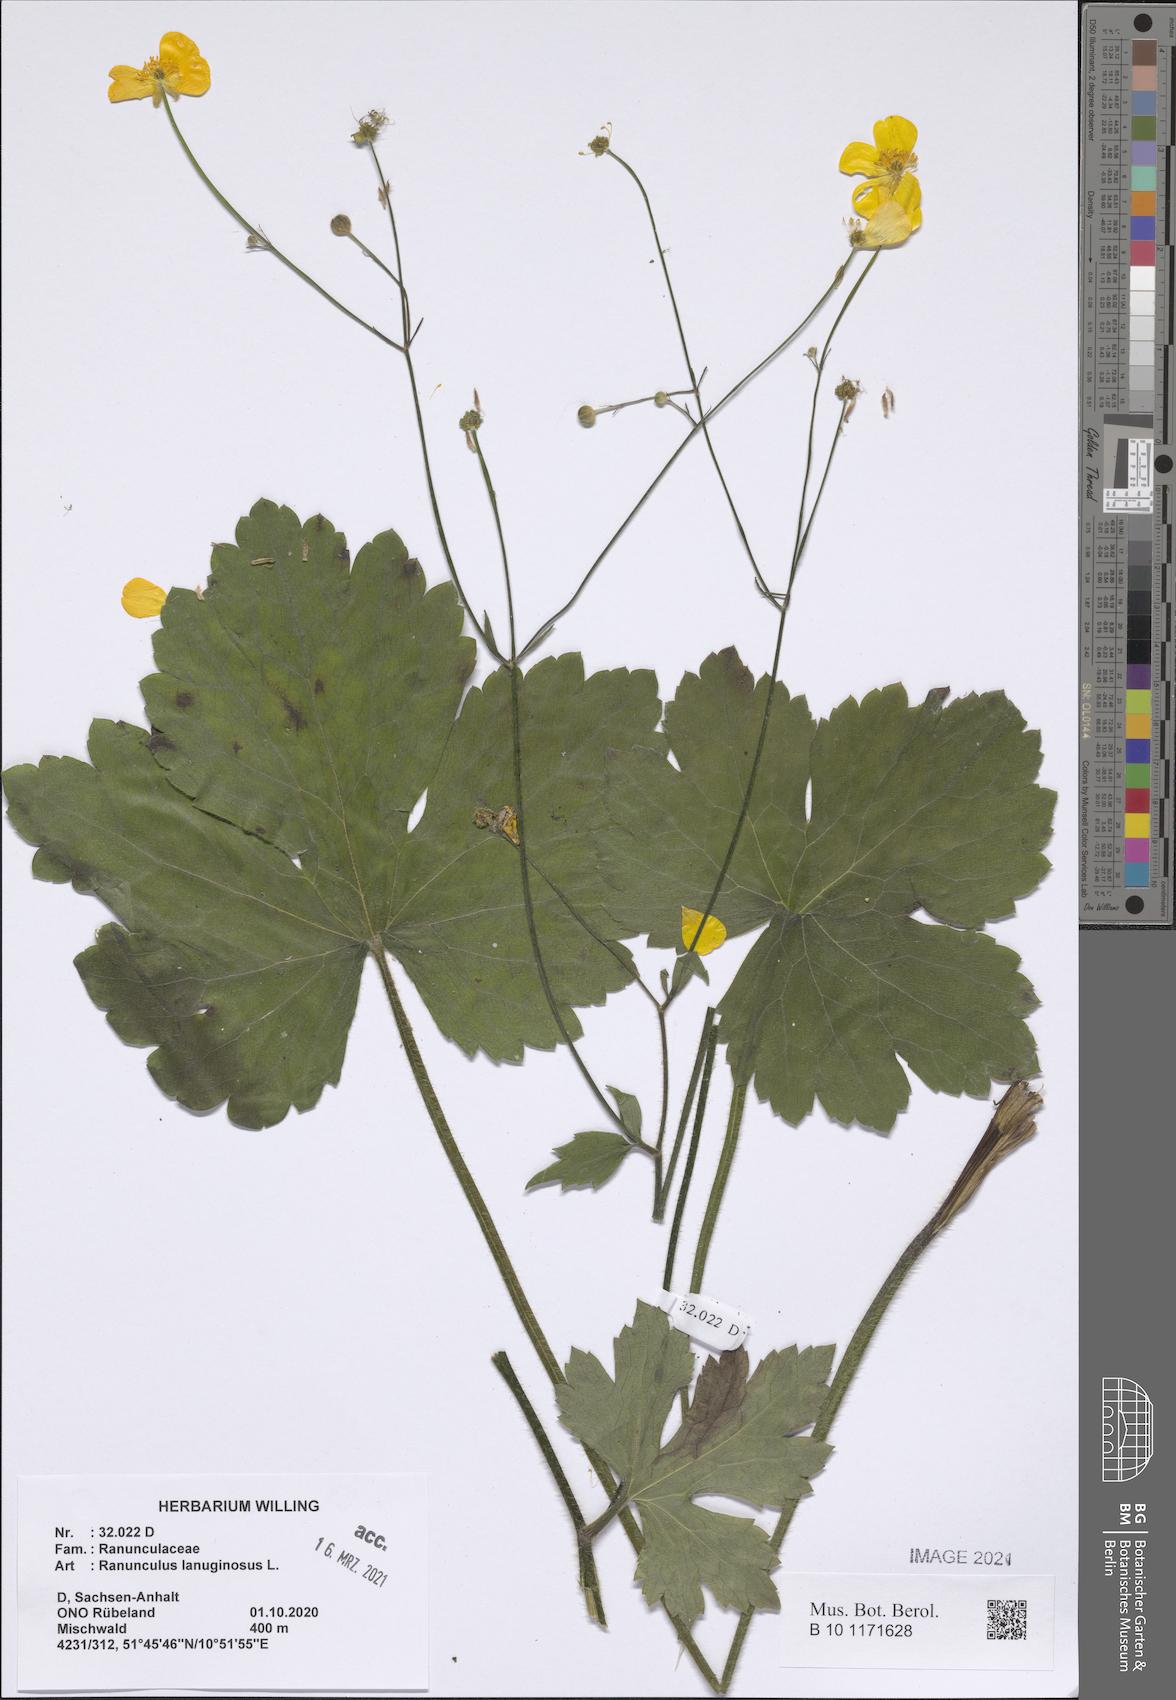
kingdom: Plantae
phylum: Tracheophyta
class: Magnoliopsida
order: Ranunculales
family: Ranunculaceae
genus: Ranunculus
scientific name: Ranunculus lanuginosus
